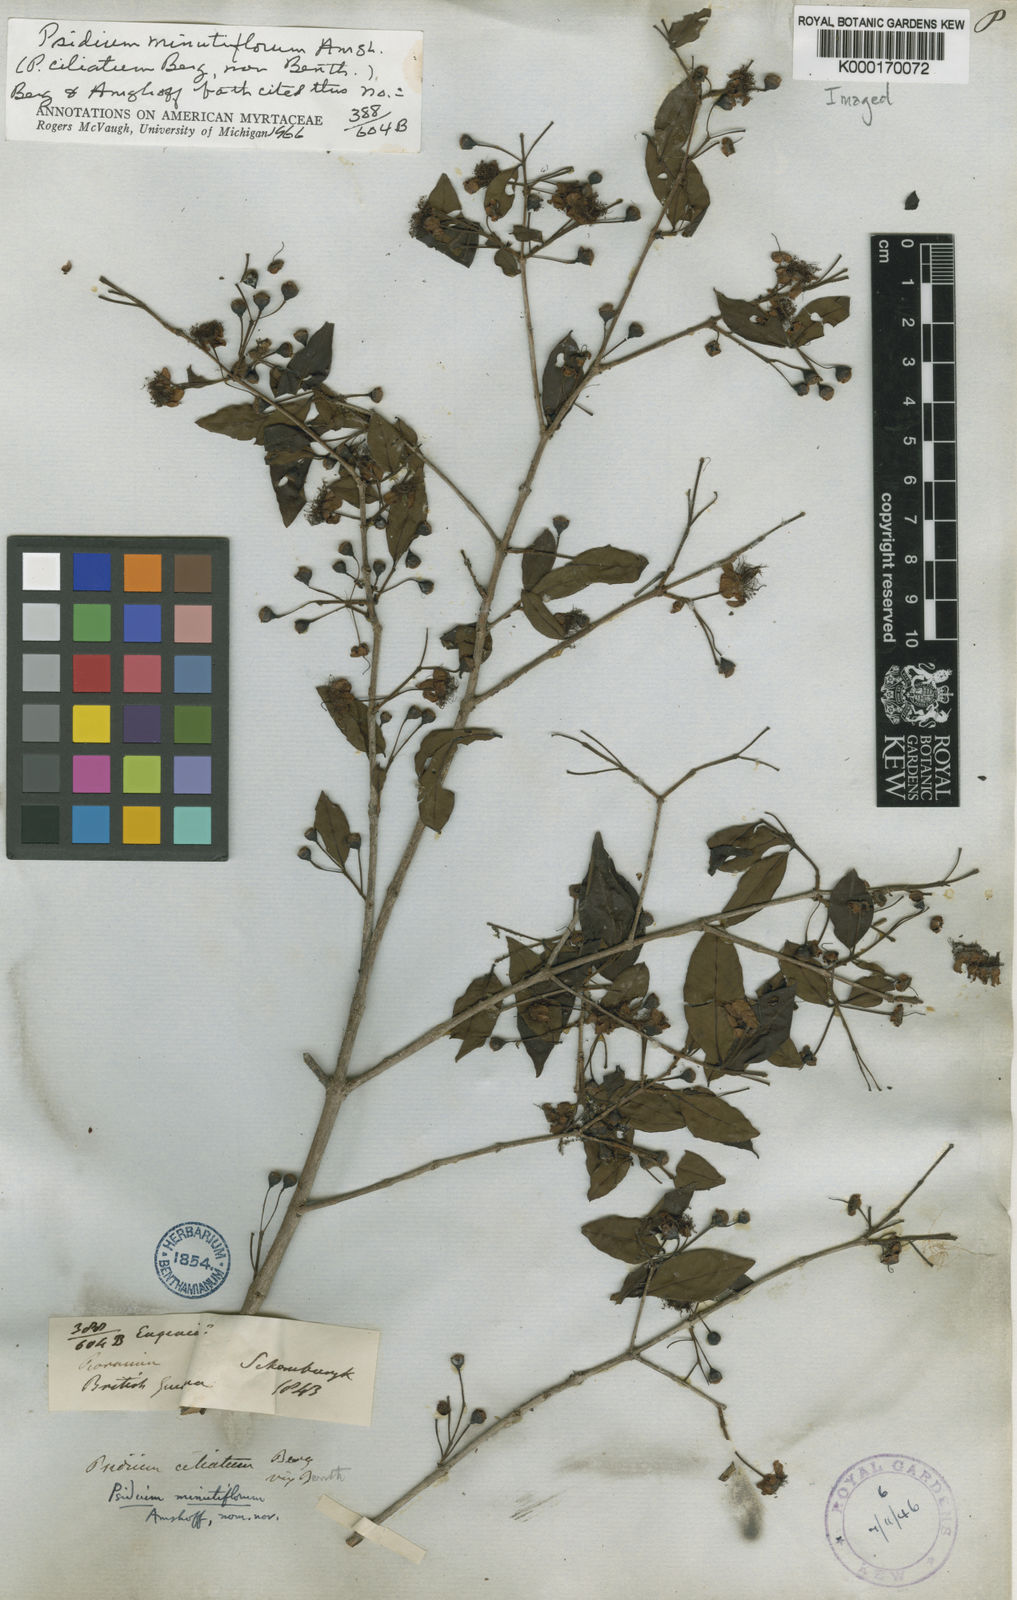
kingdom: Plantae
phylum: Tracheophyta
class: Magnoliopsida
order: Myrtales
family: Myrtaceae
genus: Psidium
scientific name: Psidium salutare
